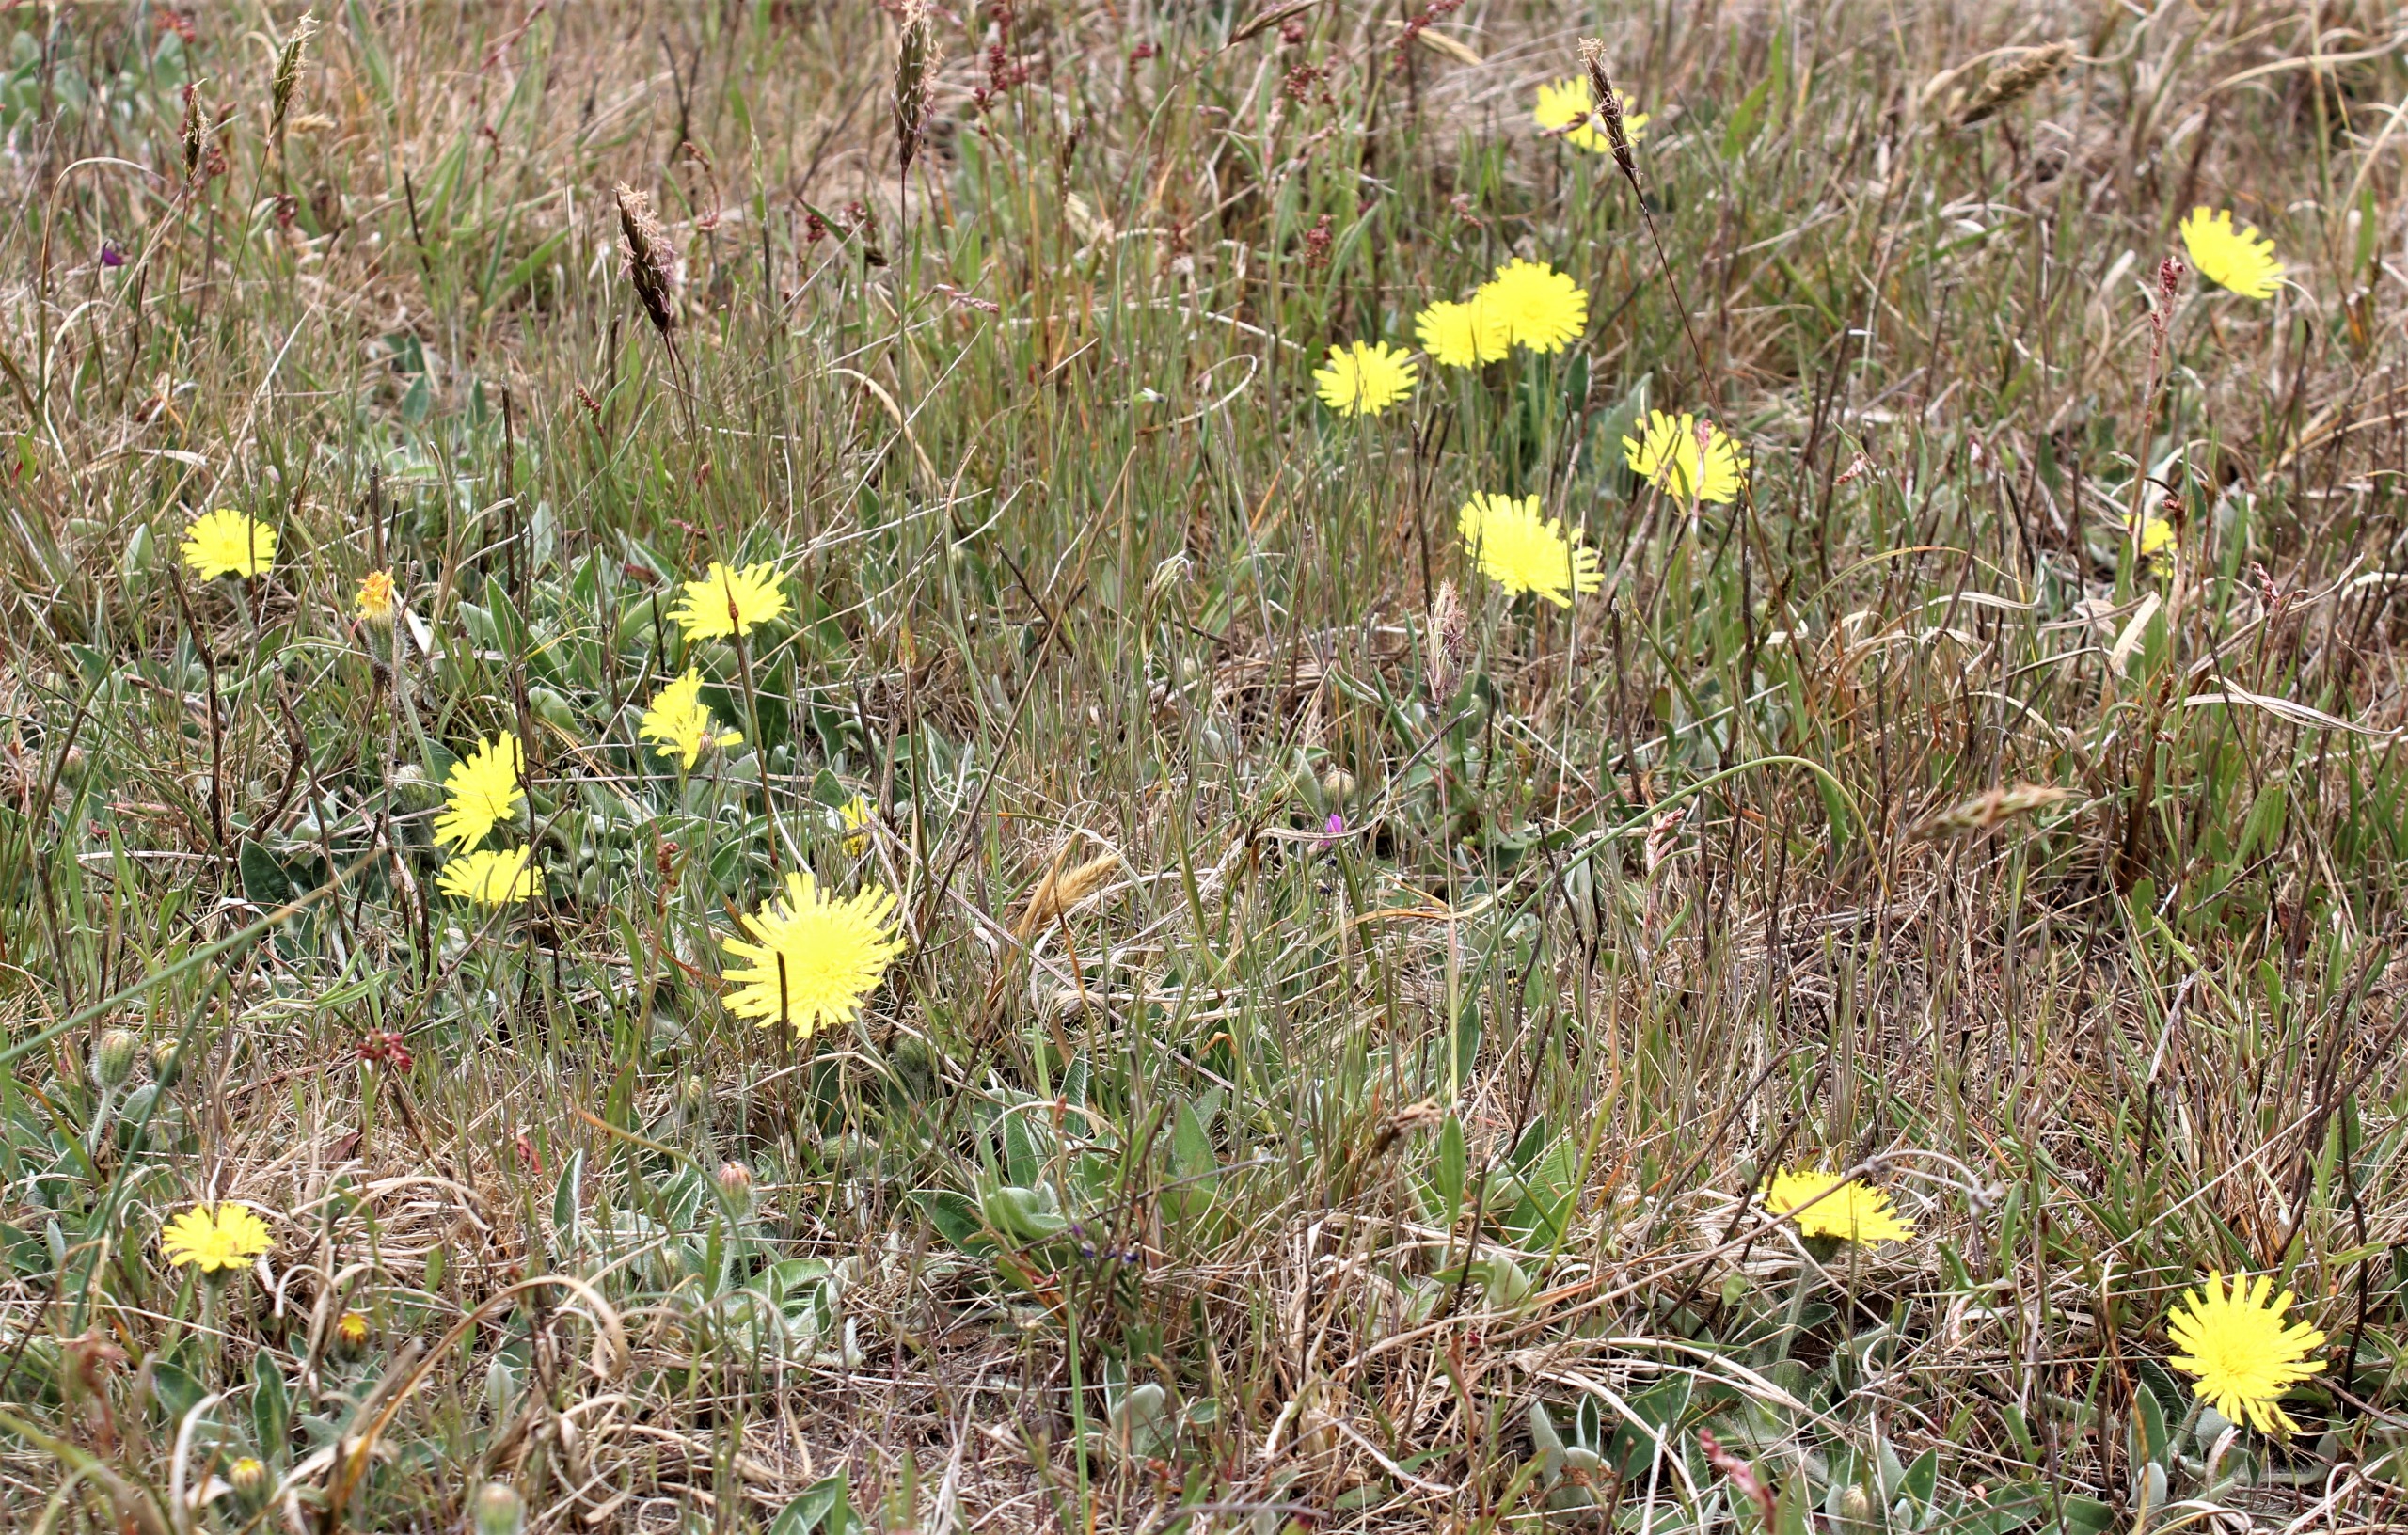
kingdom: Plantae
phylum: Tracheophyta
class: Magnoliopsida
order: Asterales
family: Asteraceae
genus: Pilosella
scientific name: Pilosella officinarum
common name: Håret høgeurt
